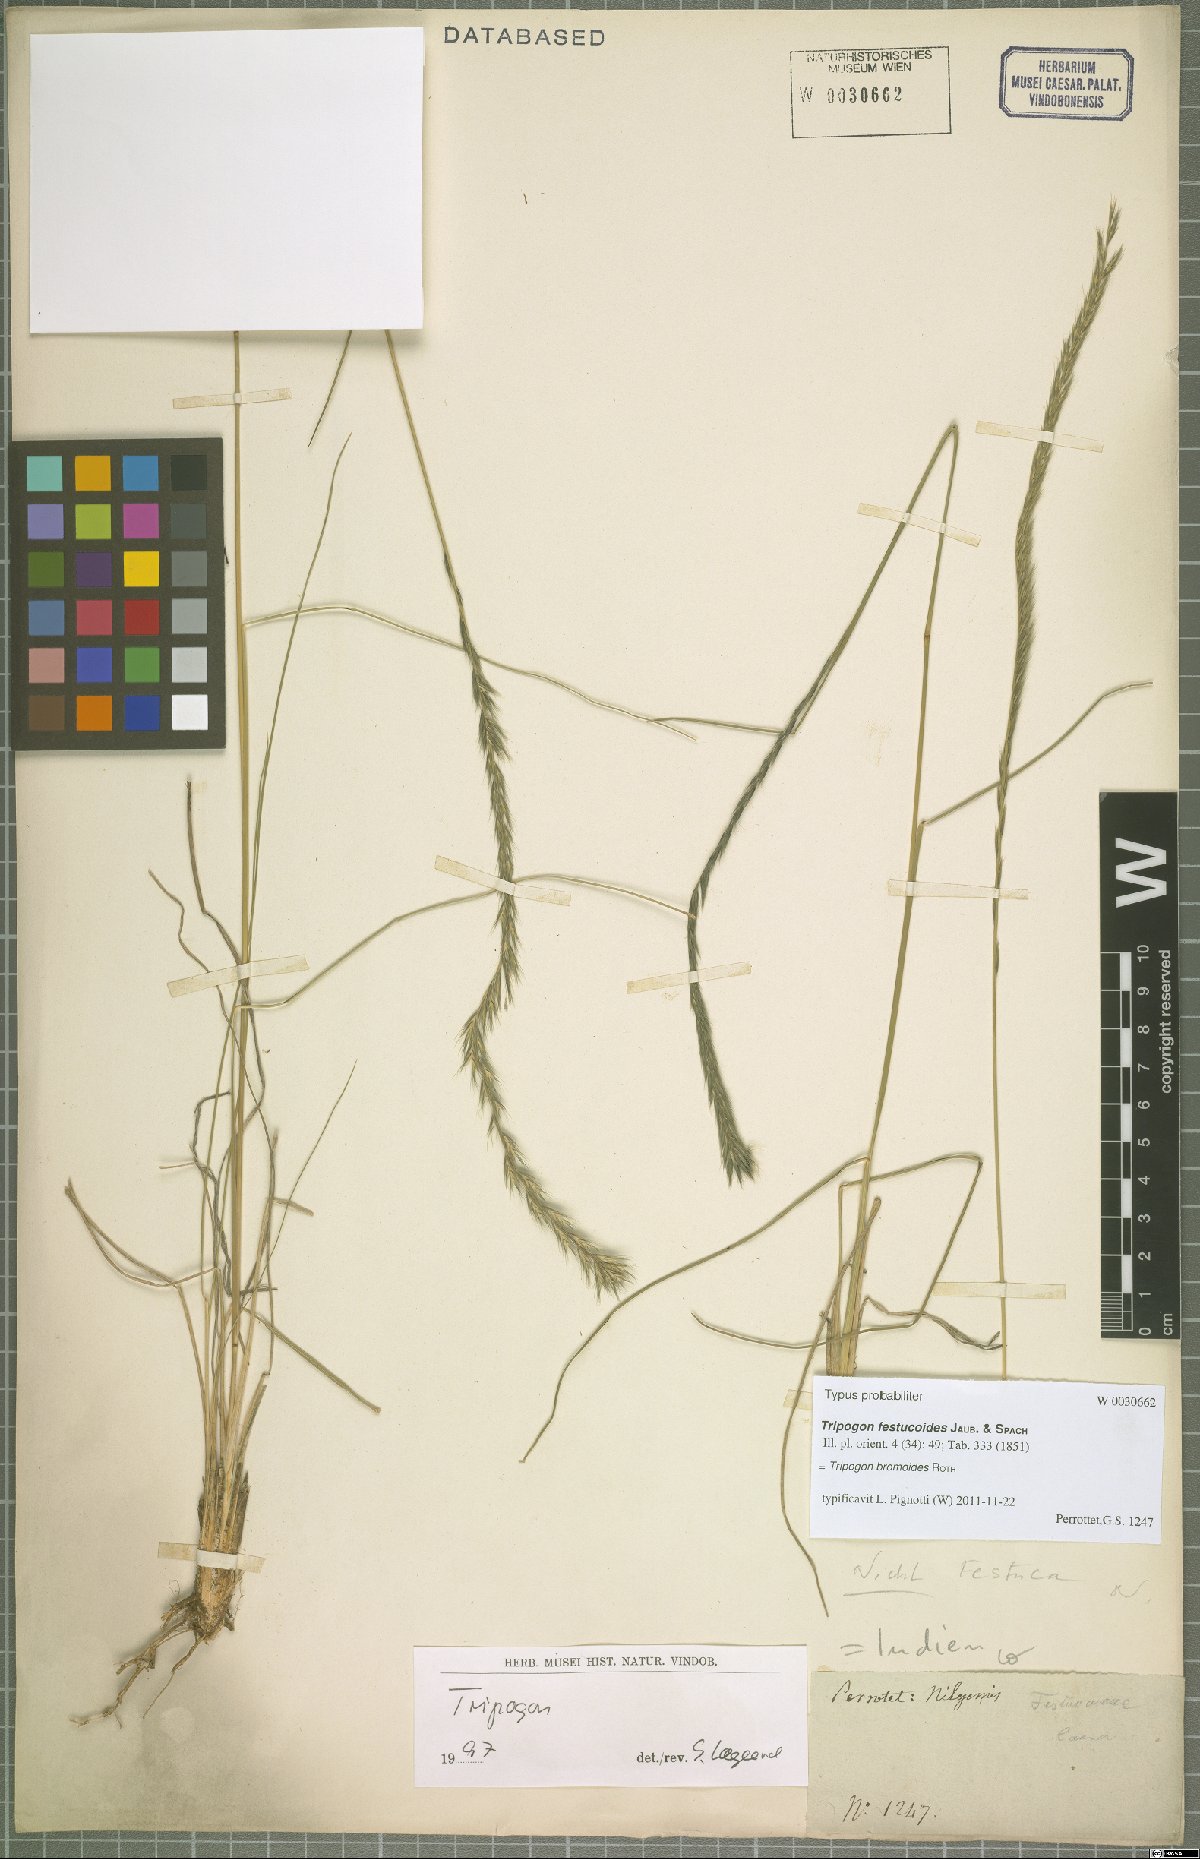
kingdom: Plantae
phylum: Tracheophyta
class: Liliopsida
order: Poales
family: Poaceae
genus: Tripogon
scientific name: Tripogon bromoides
